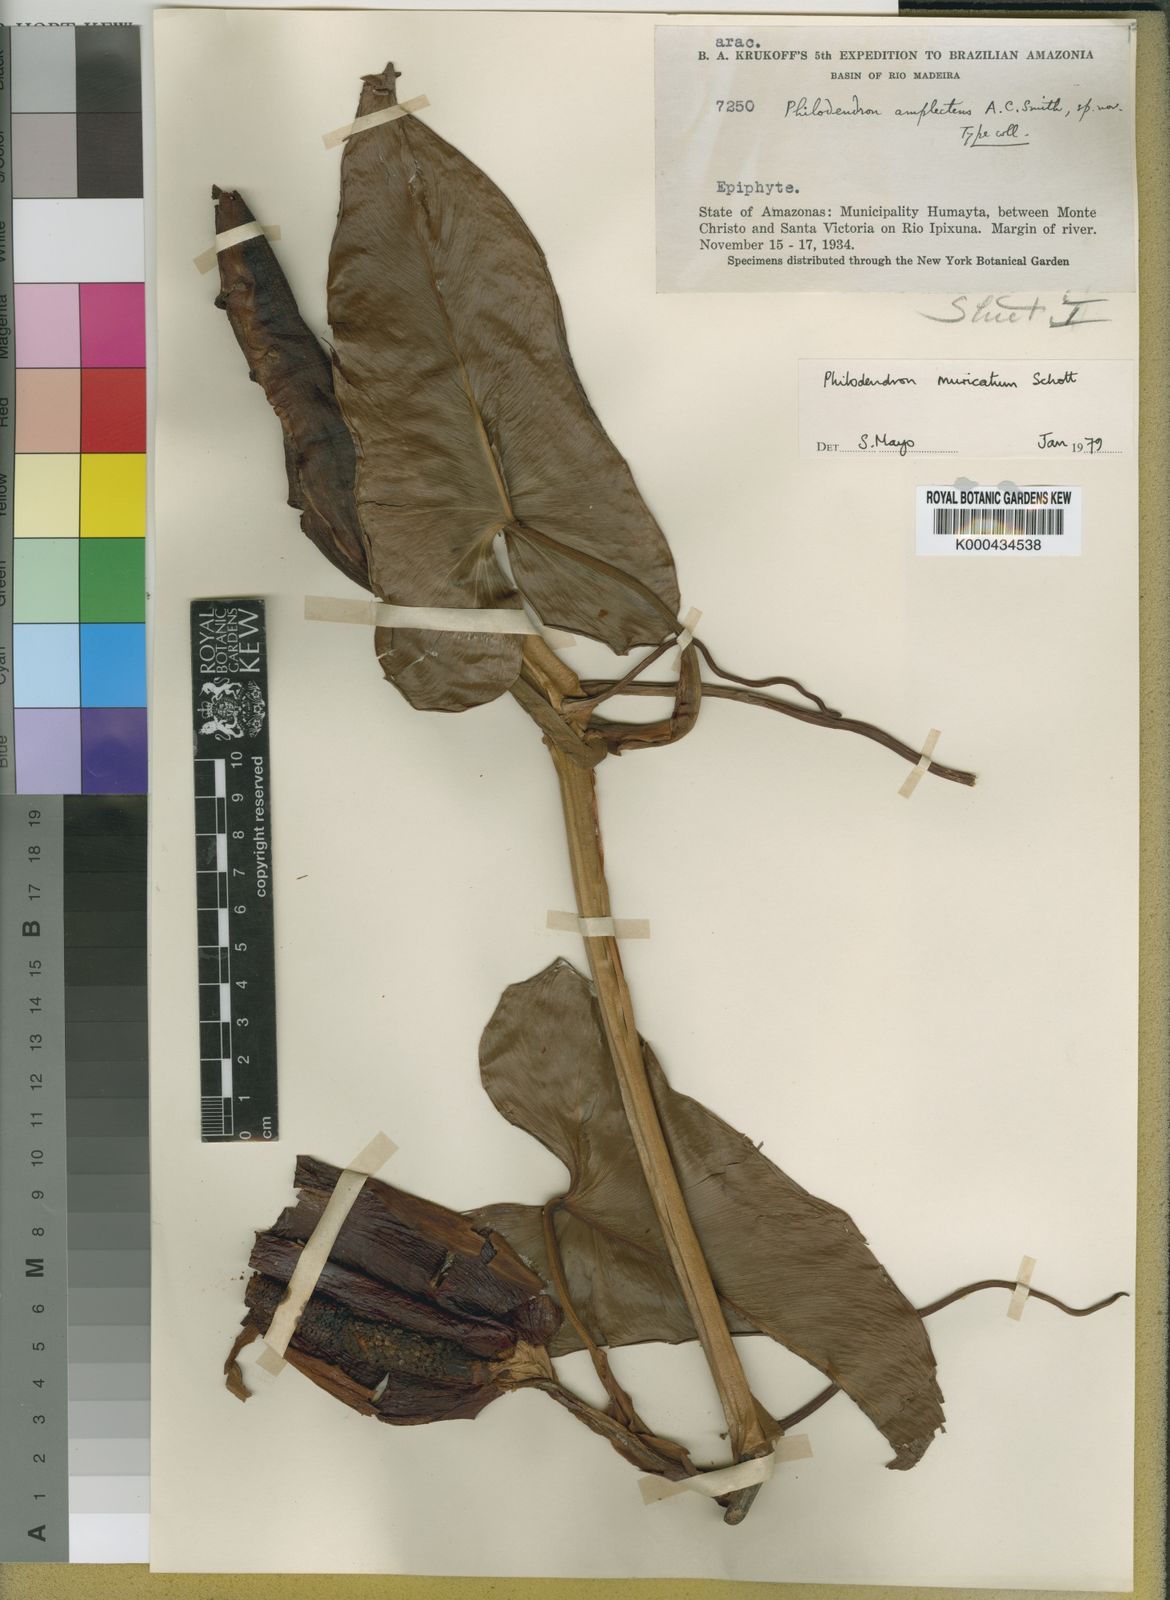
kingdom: Plantae
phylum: Tracheophyta
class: Liliopsida
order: Alismatales
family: Araceae
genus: Philodendron
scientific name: Philodendron muricatum
